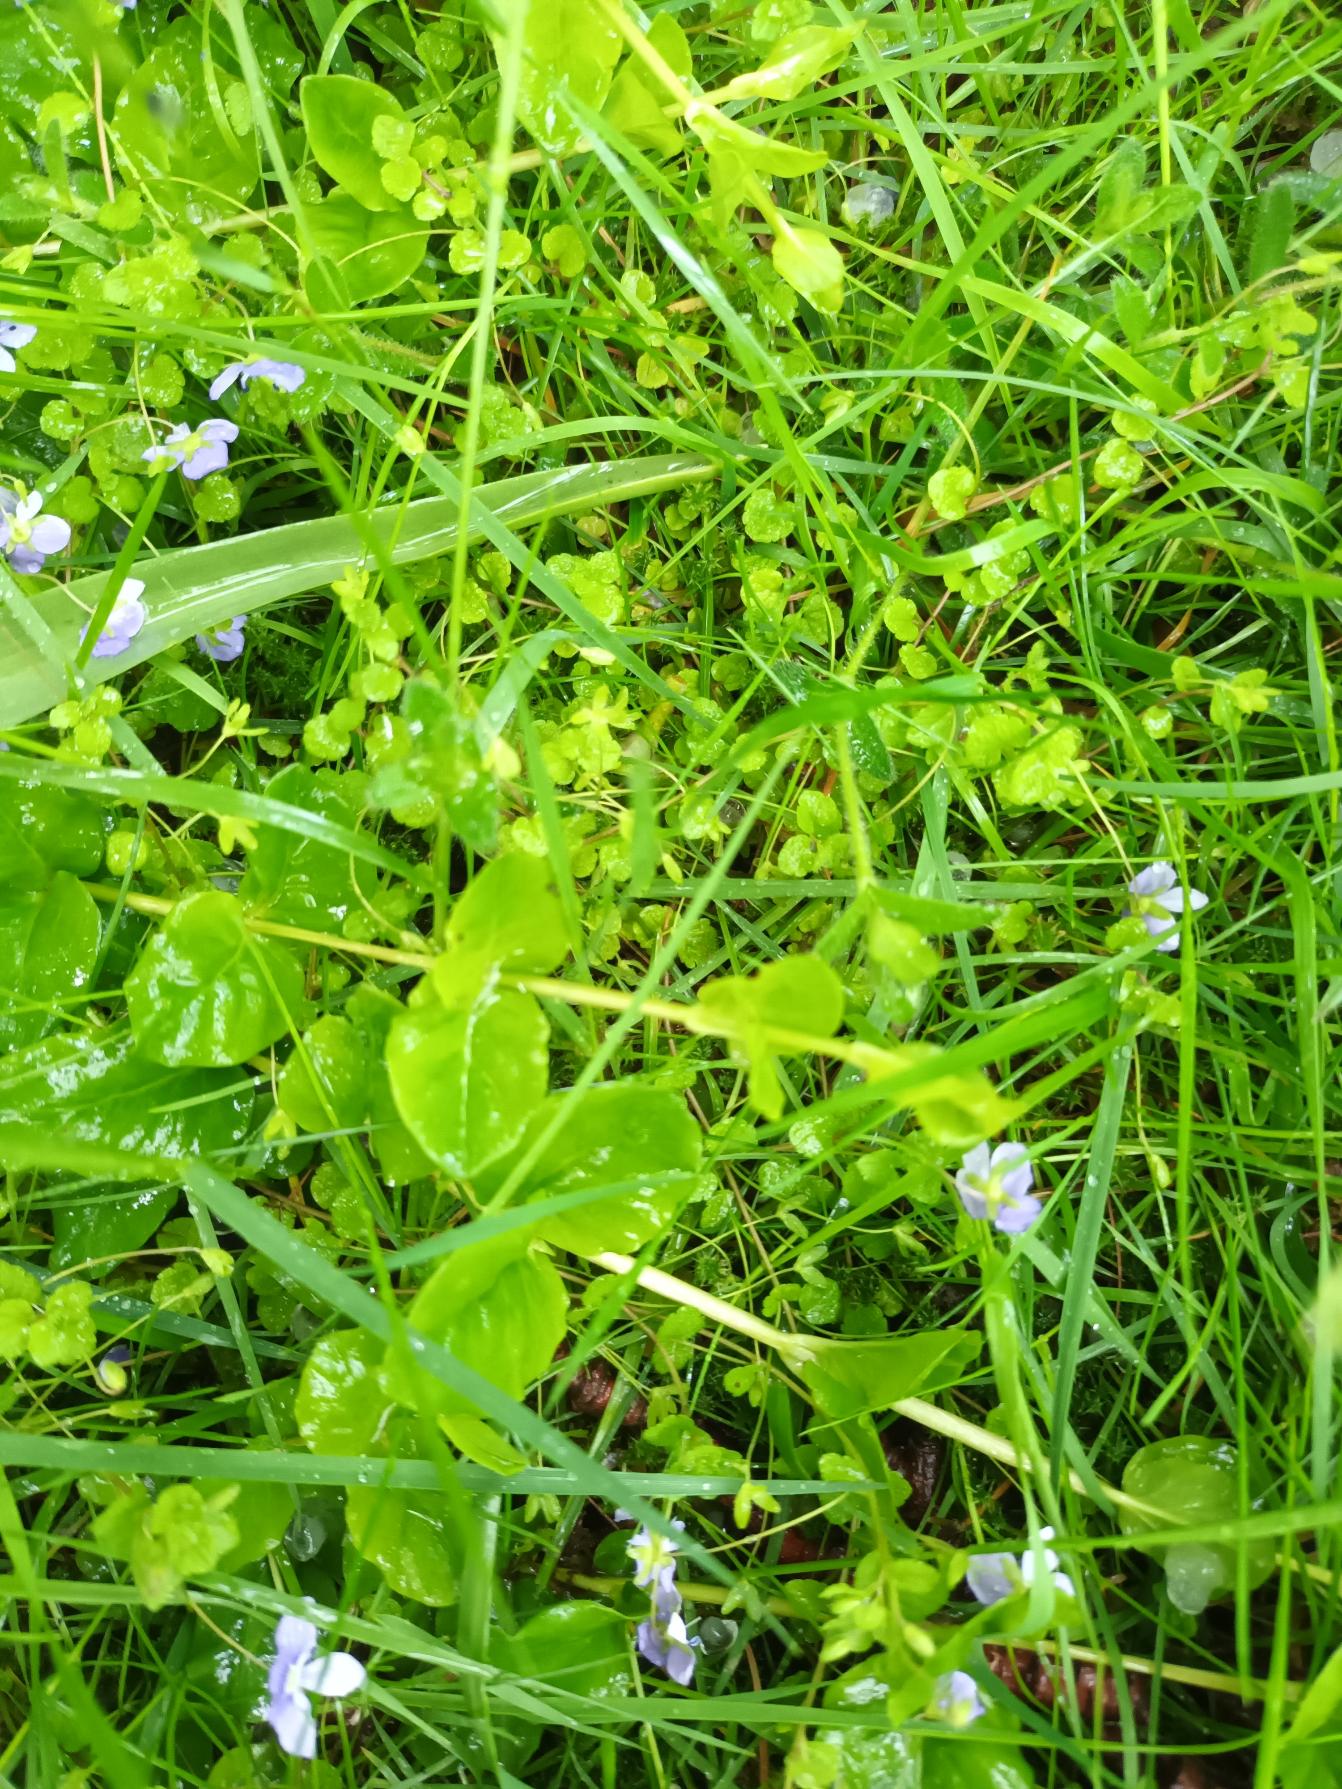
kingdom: Plantae
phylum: Tracheophyta
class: Magnoliopsida
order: Lamiales
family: Plantaginaceae
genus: Veronica
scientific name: Veronica filiformis
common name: Tråd-ærenpris
